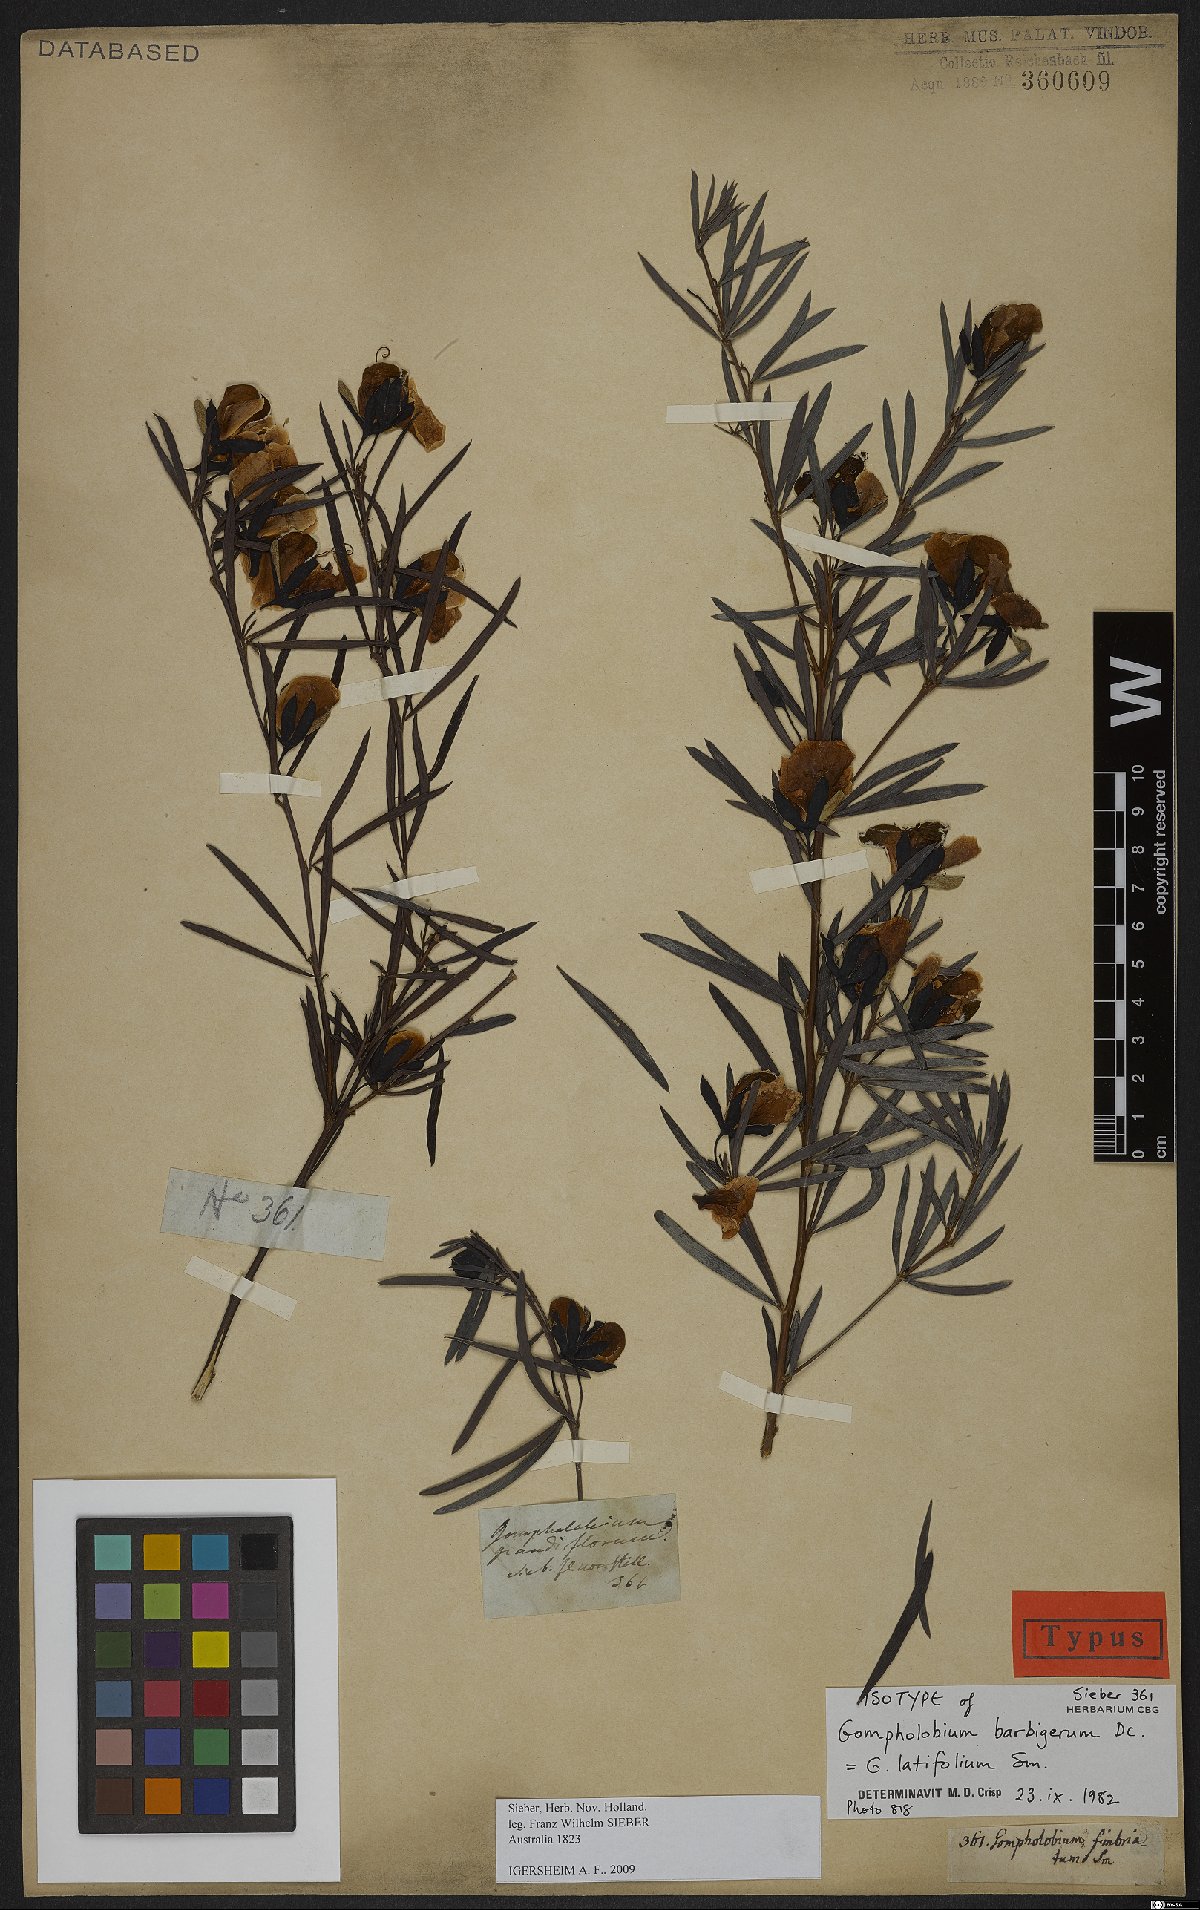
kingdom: Plantae
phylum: Tracheophyta
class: Magnoliopsida
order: Fabales
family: Fabaceae
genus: Gompholobium
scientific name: Gompholobium latifolium
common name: Broadleaf wedge-pea
